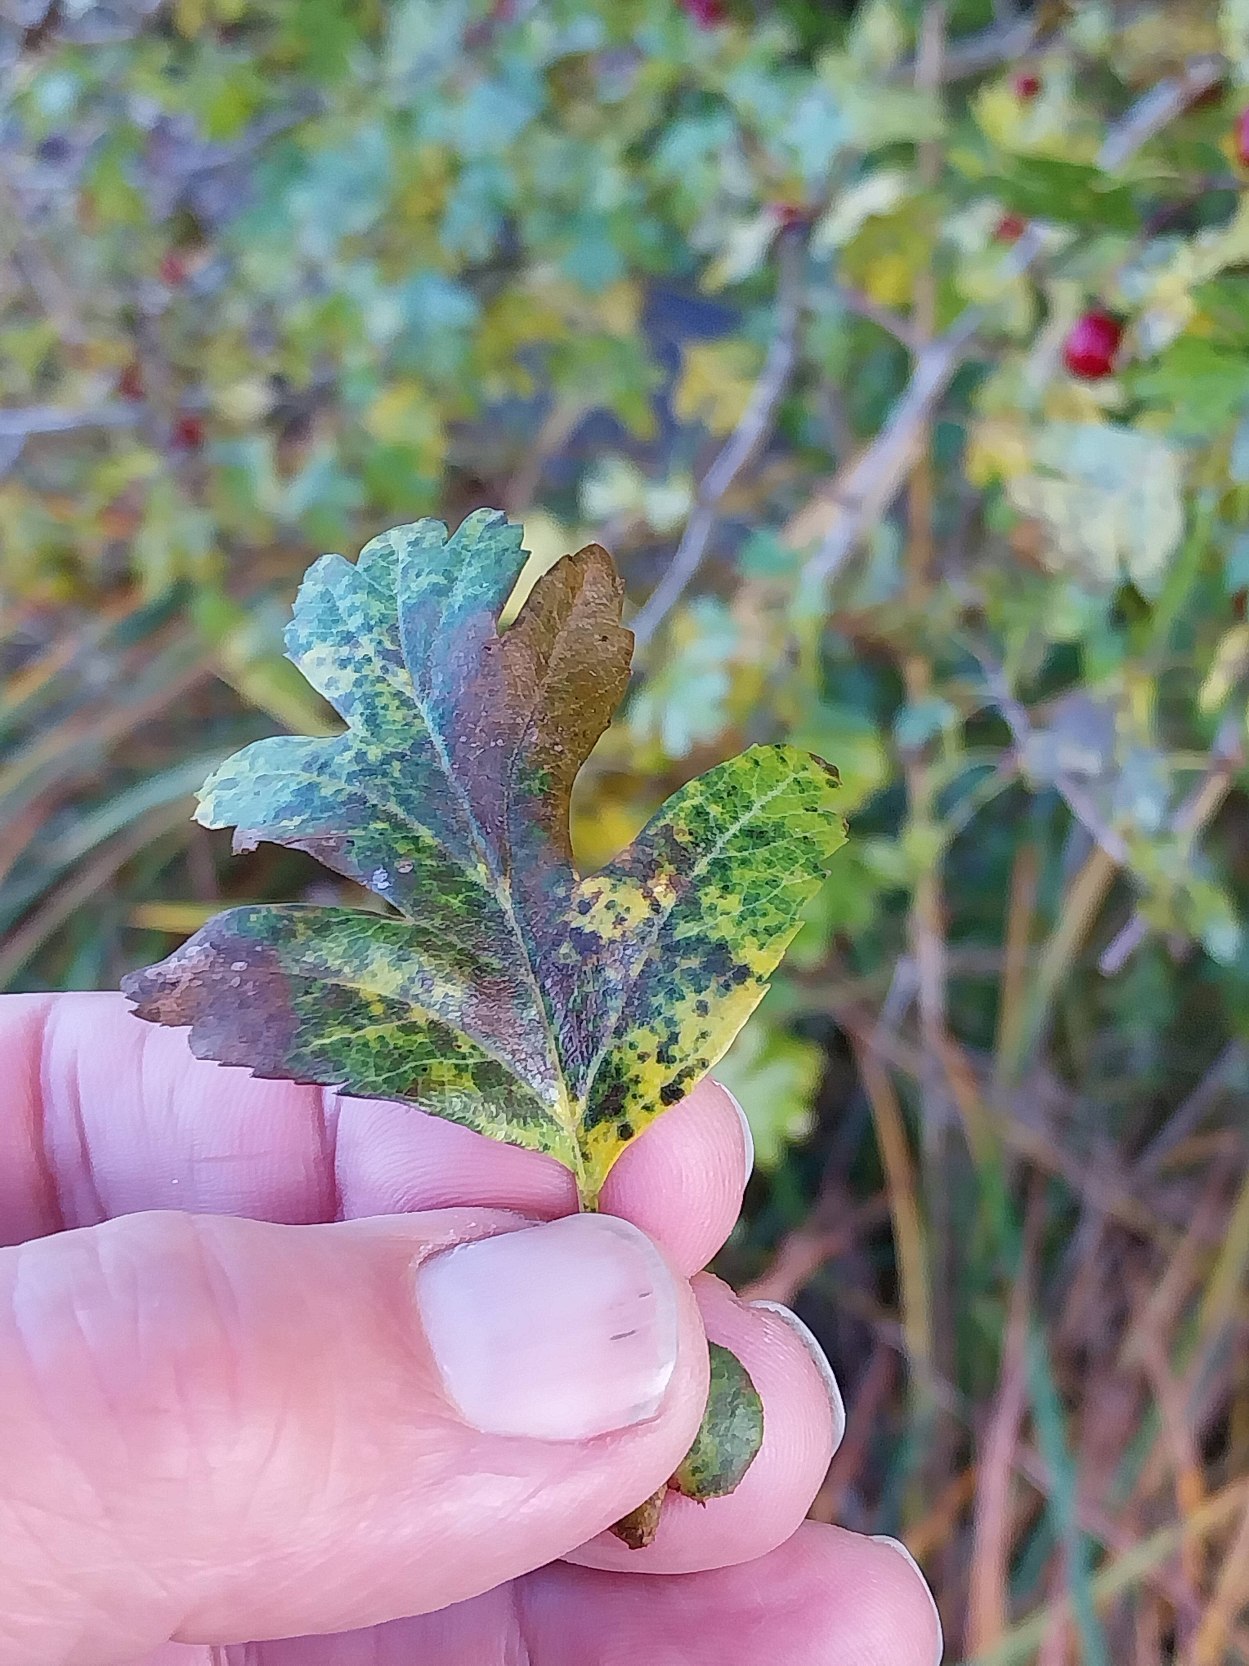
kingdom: Plantae
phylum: Tracheophyta
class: Magnoliopsida
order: Rosales
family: Rosaceae
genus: Crataegus
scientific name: Crataegus subsphaerica
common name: Engriflet hvidtjørn × koral-hvidtjørn
